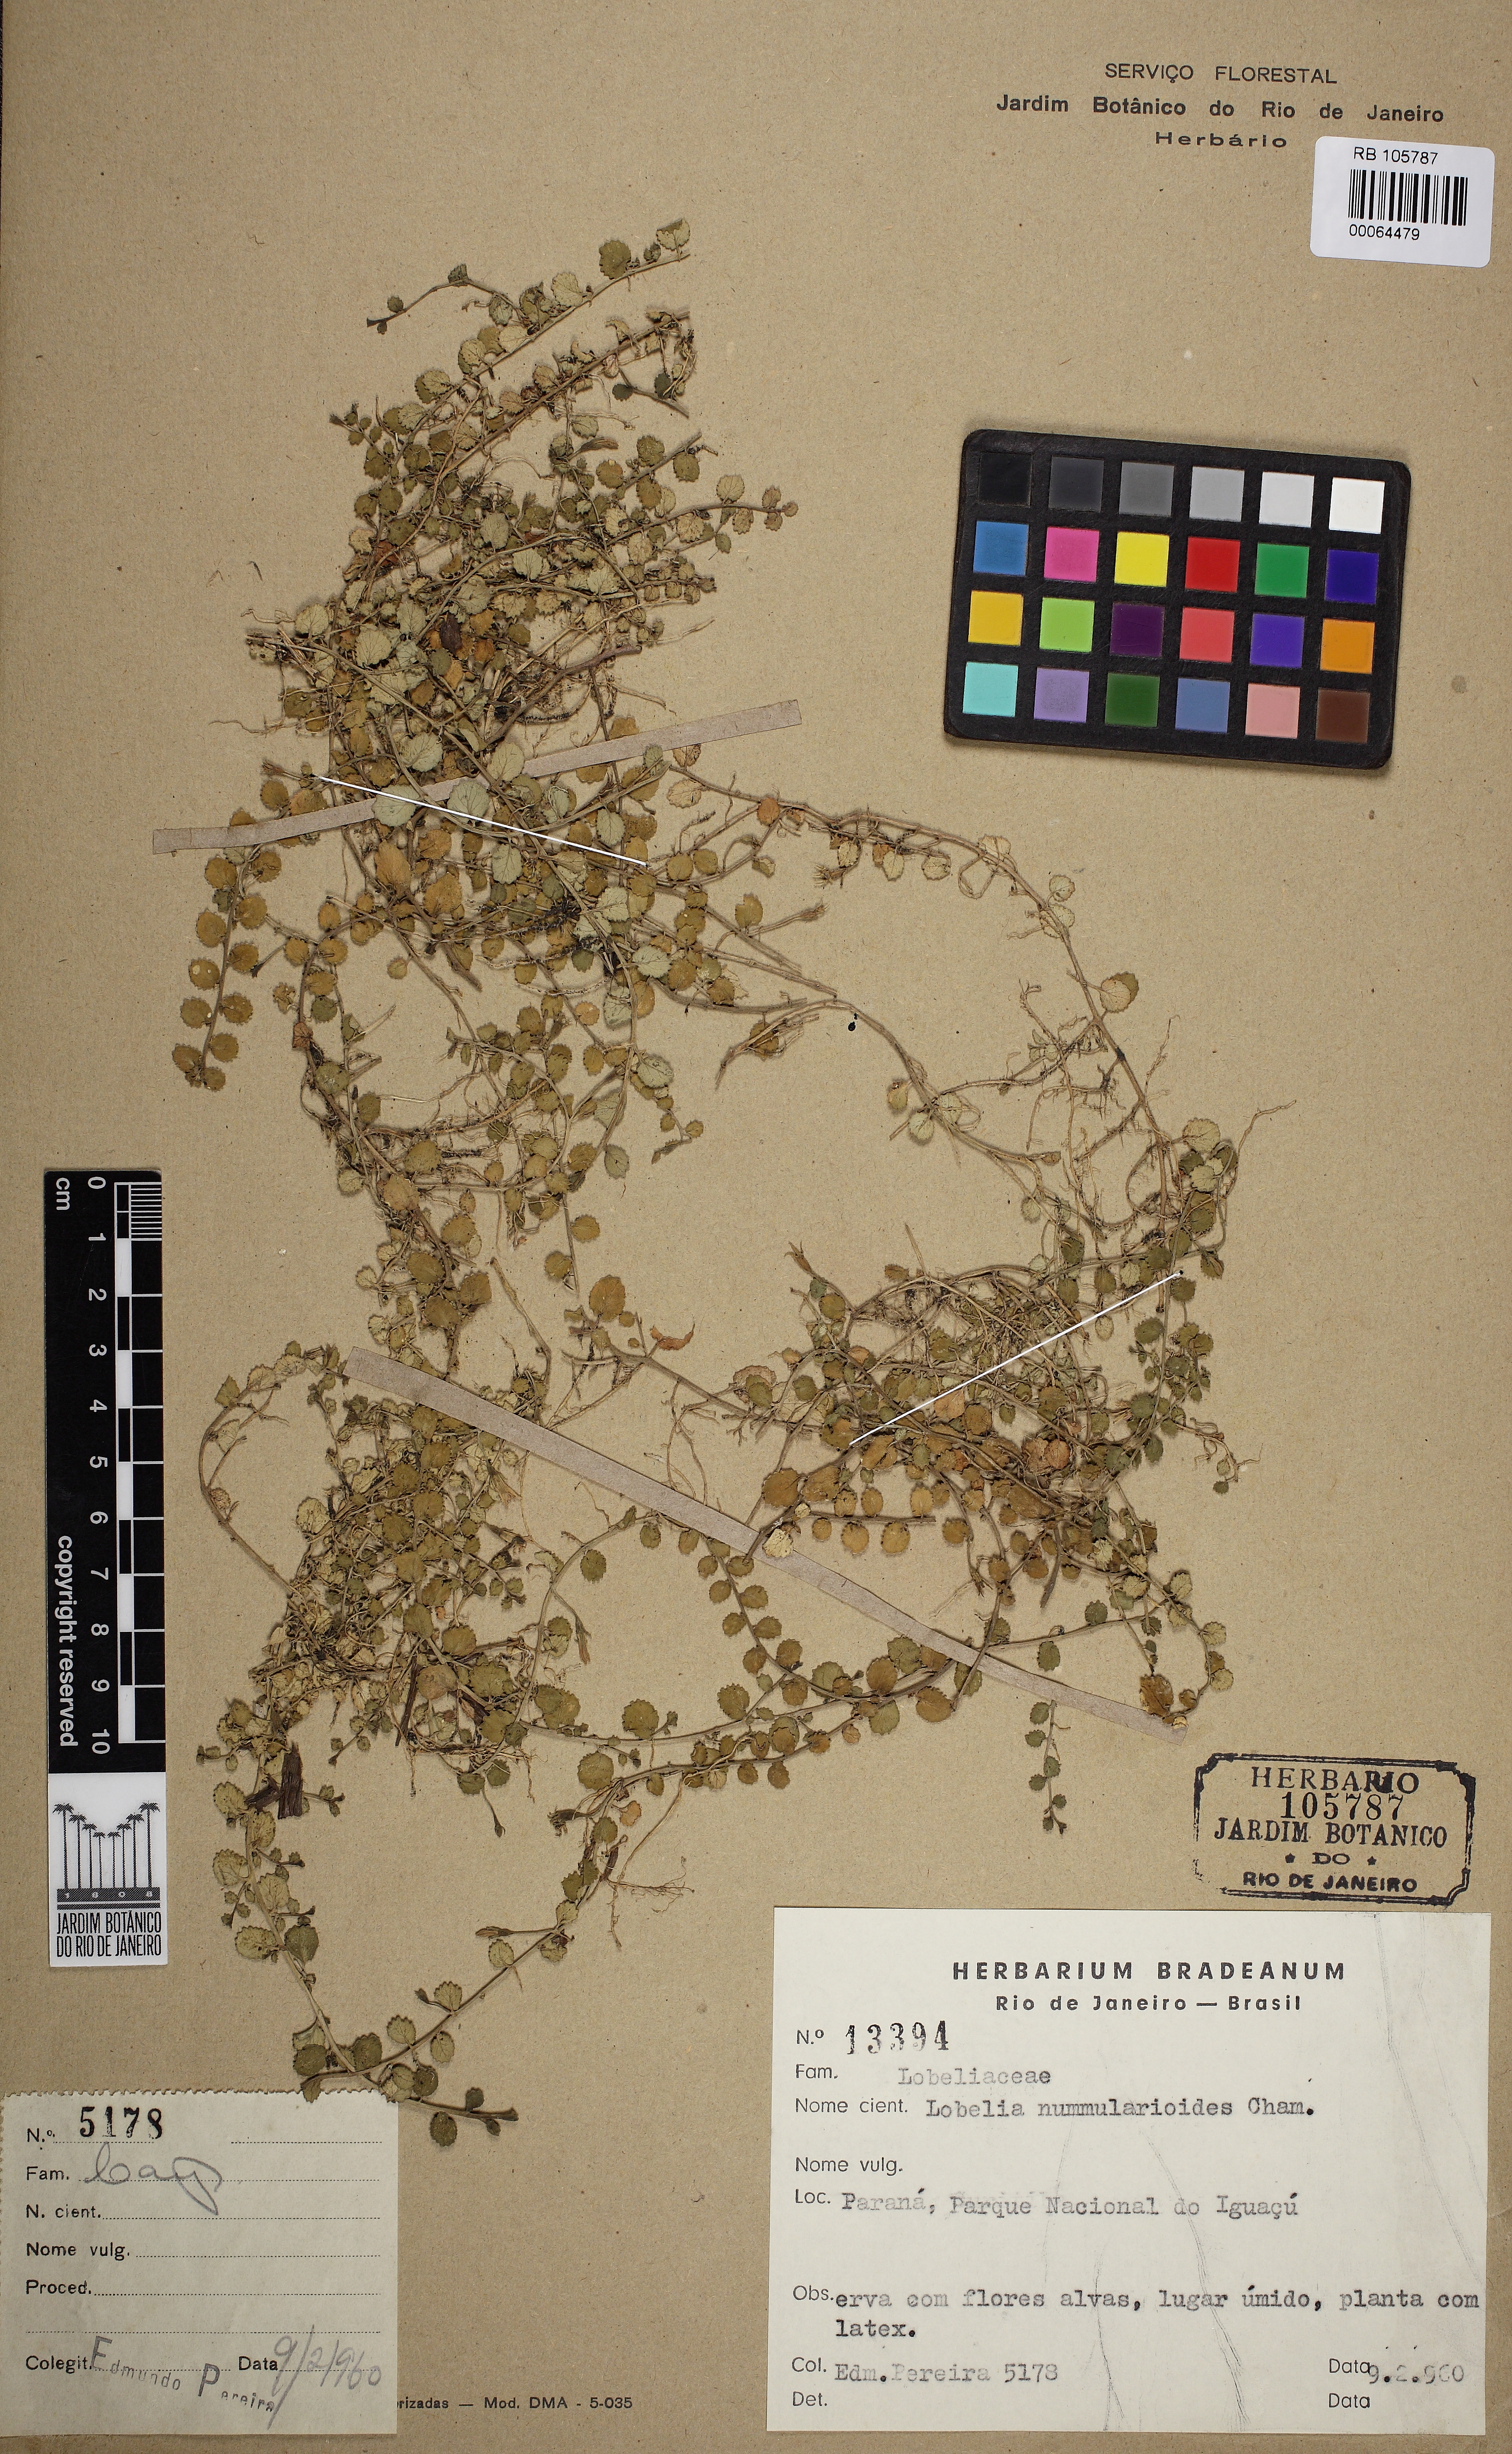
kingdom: Plantae
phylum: Tracheophyta
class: Magnoliopsida
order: Asterales
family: Campanulaceae
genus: Lobelia
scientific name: Lobelia reniformis
